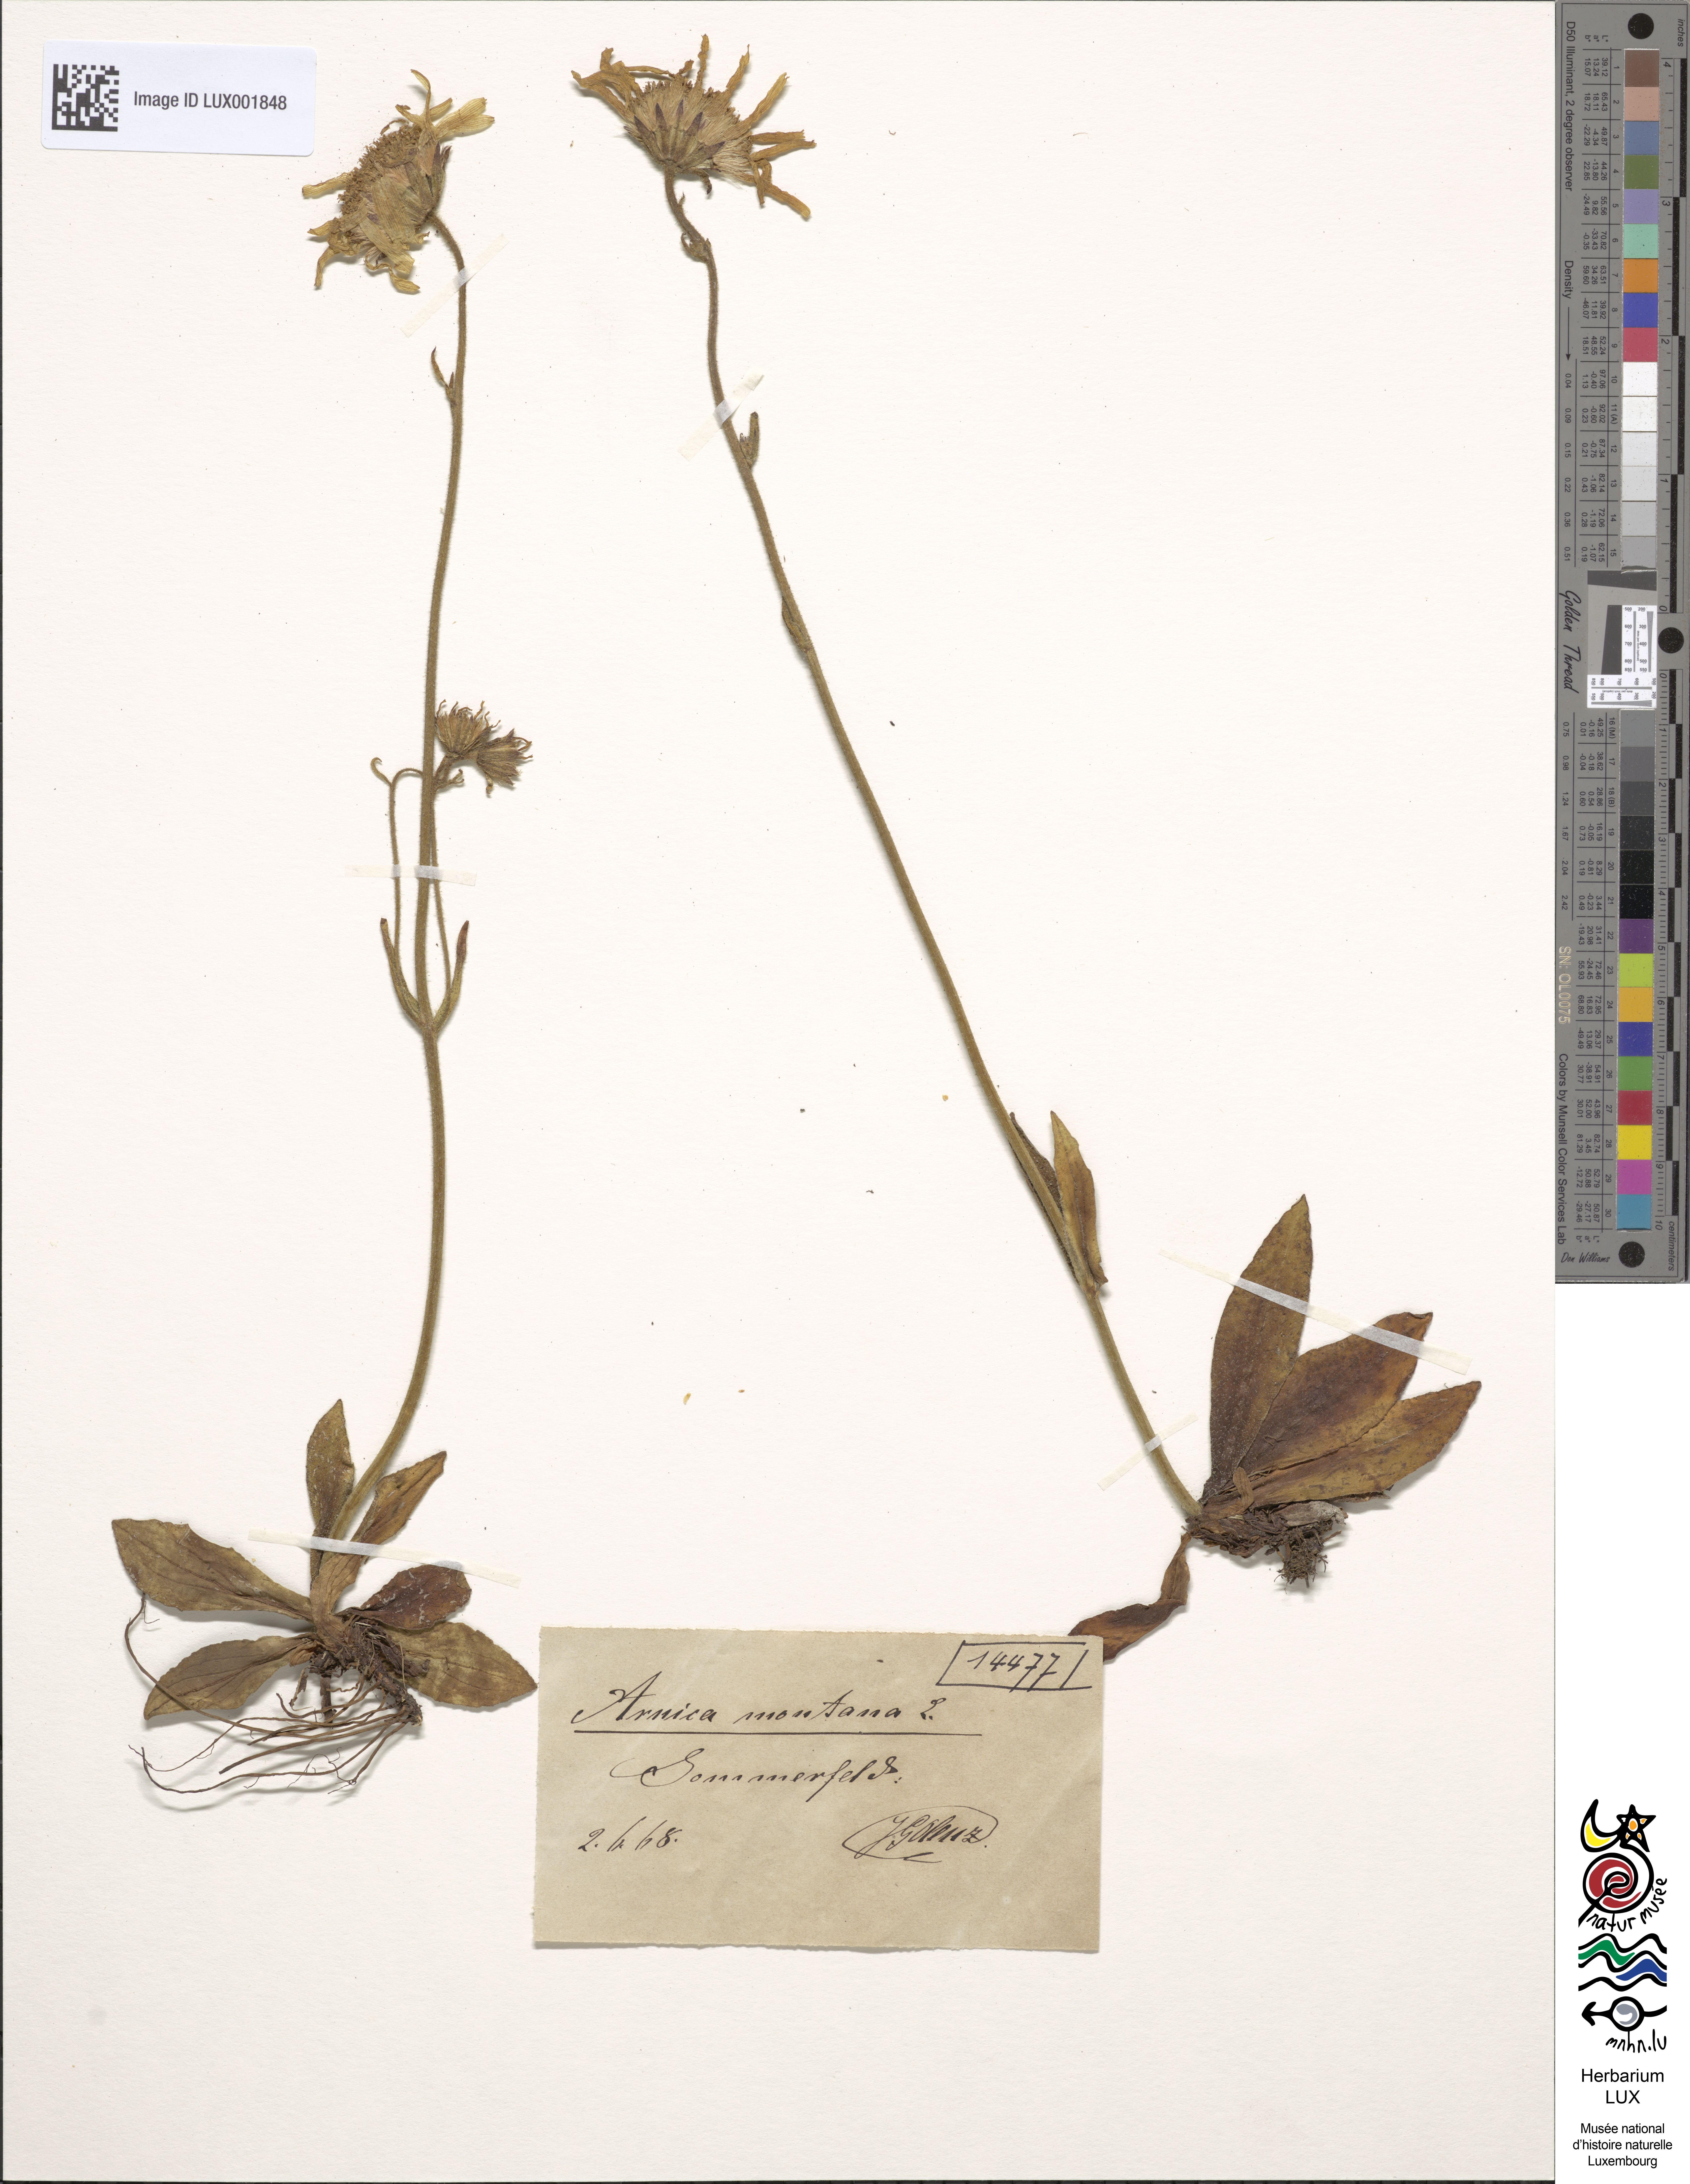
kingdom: Plantae
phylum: Tracheophyta
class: Magnoliopsida
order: Asterales
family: Asteraceae
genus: Arnica
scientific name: Arnica montana
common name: Leopard's bane
